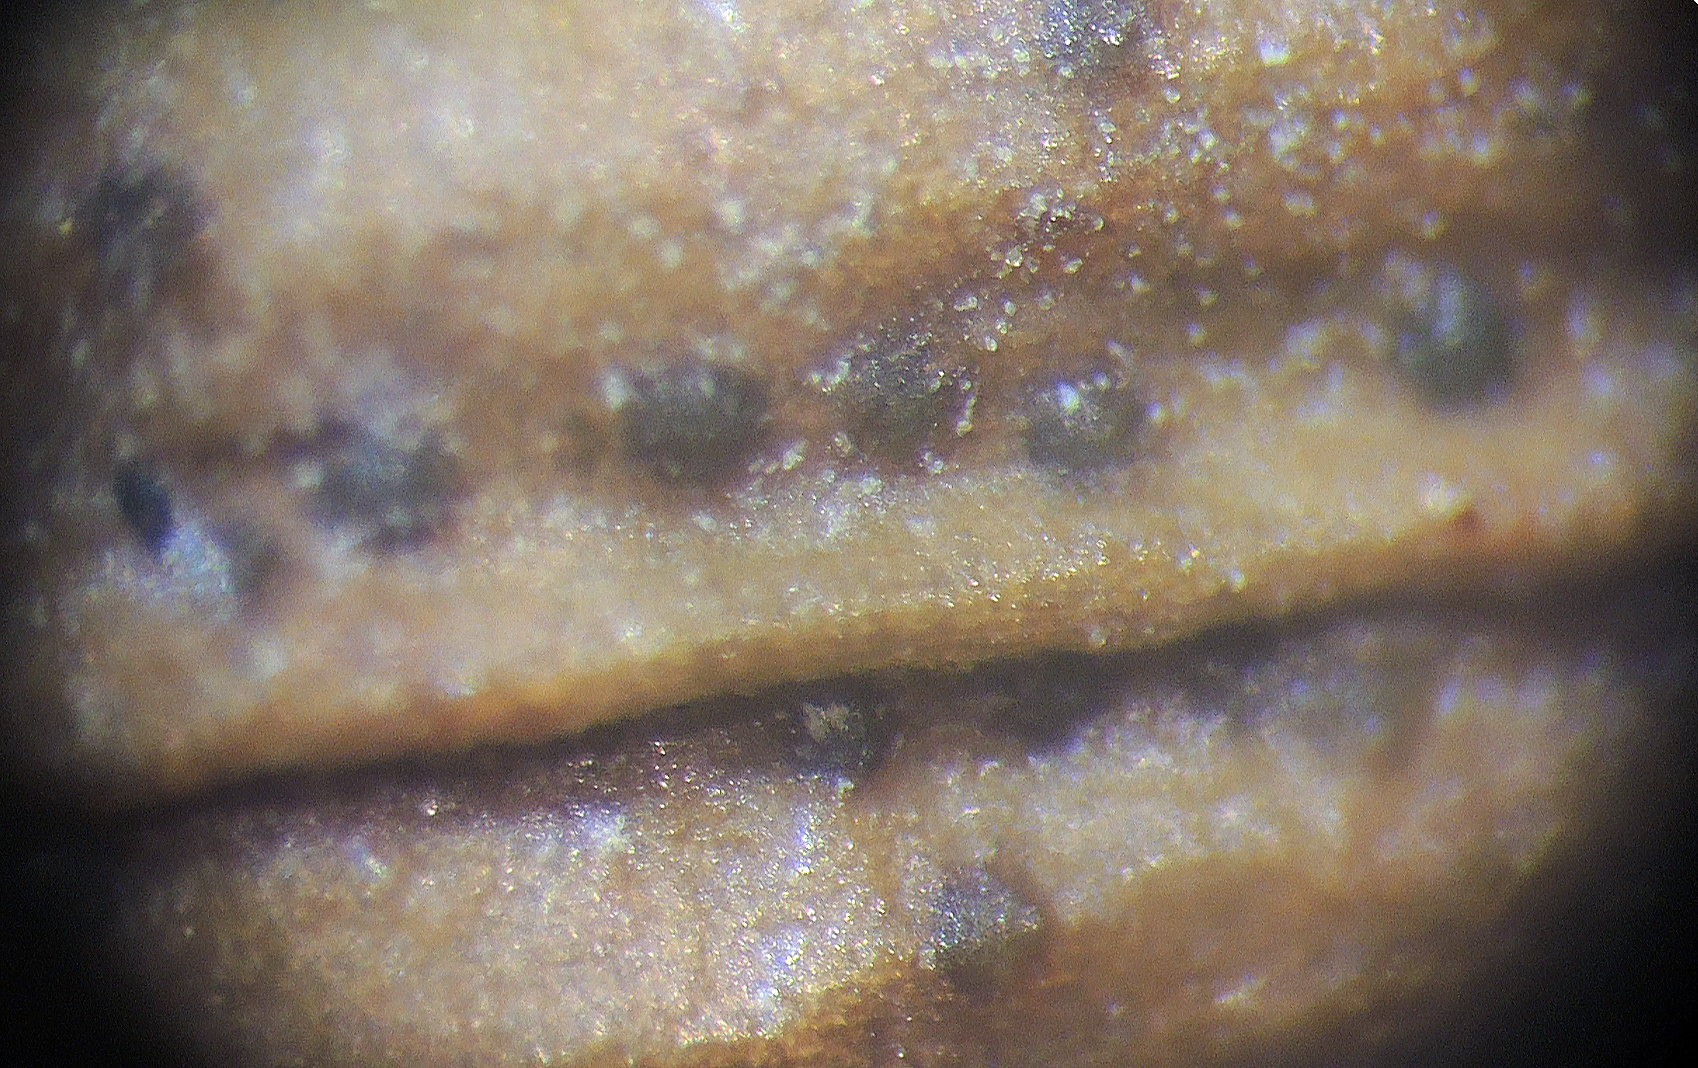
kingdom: Fungi
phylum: Ascomycota
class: Dothideomycetes
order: Pleosporales
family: Didymellaceae
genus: Phoma
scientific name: Phoma allostoma
